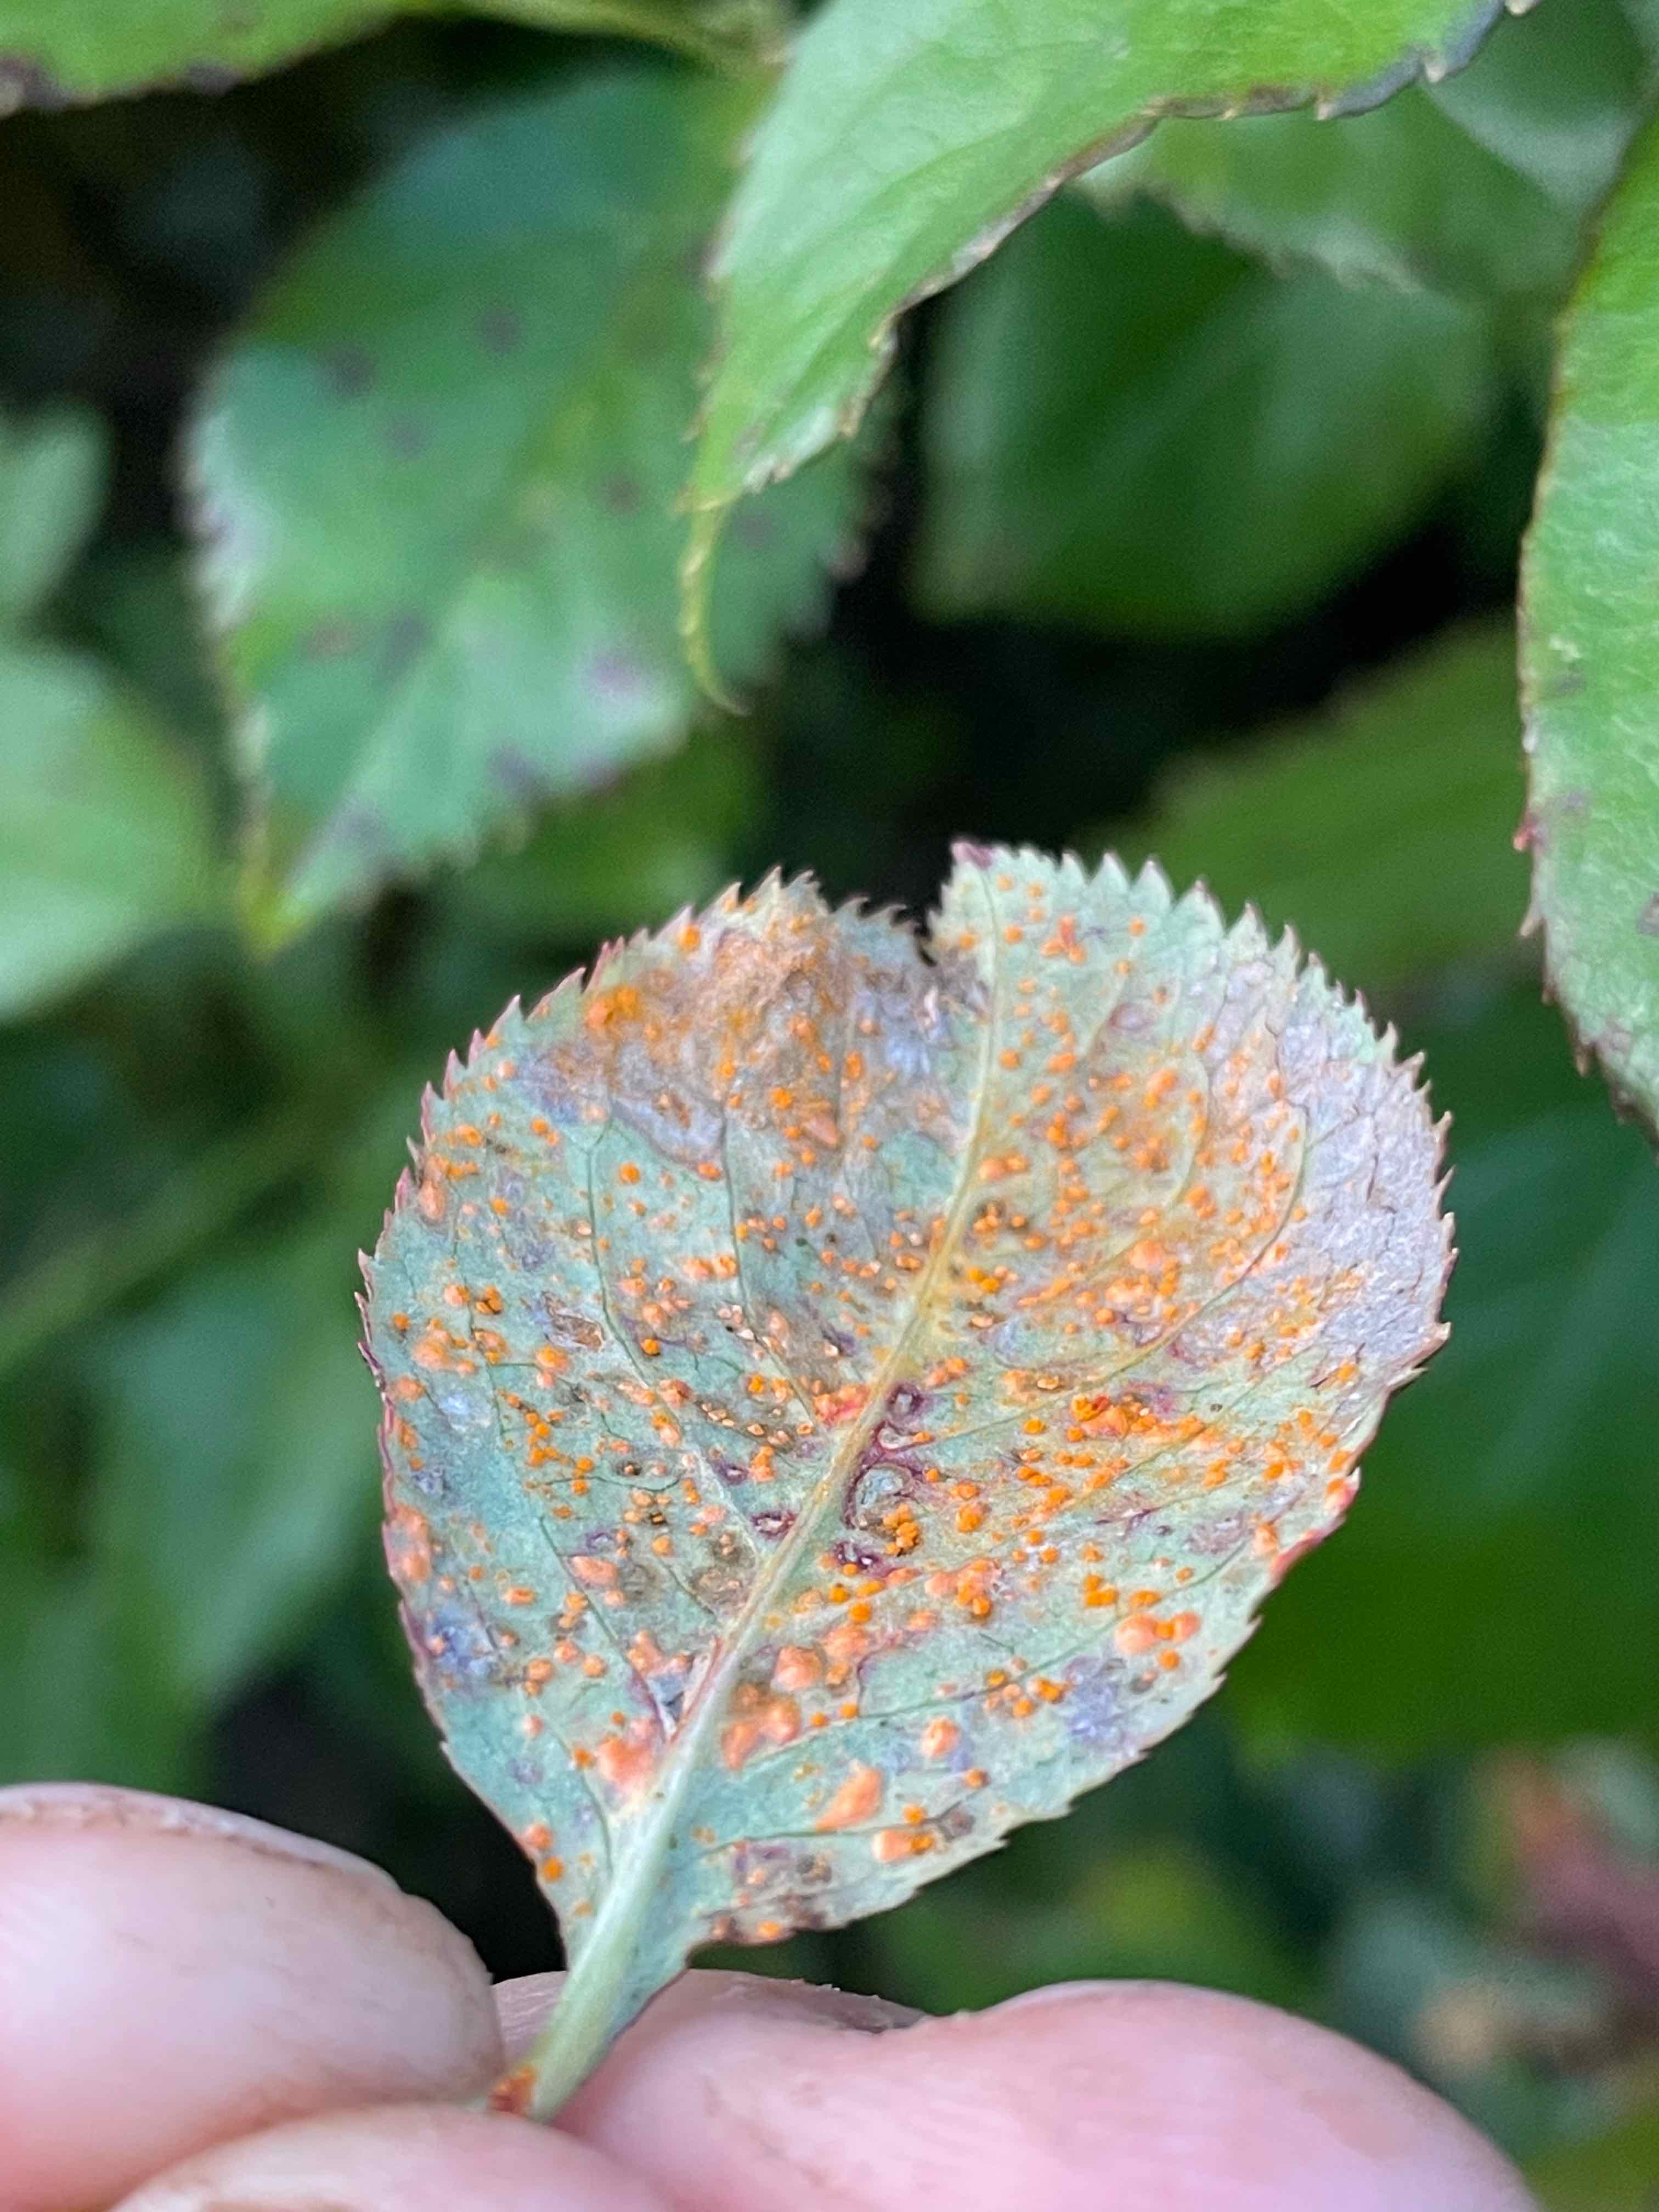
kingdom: Fungi
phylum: Basidiomycota
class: Pucciniomycetes
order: Pucciniales
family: Phragmidiaceae
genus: Phragmidium
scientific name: Phragmidium
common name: flercellerust
